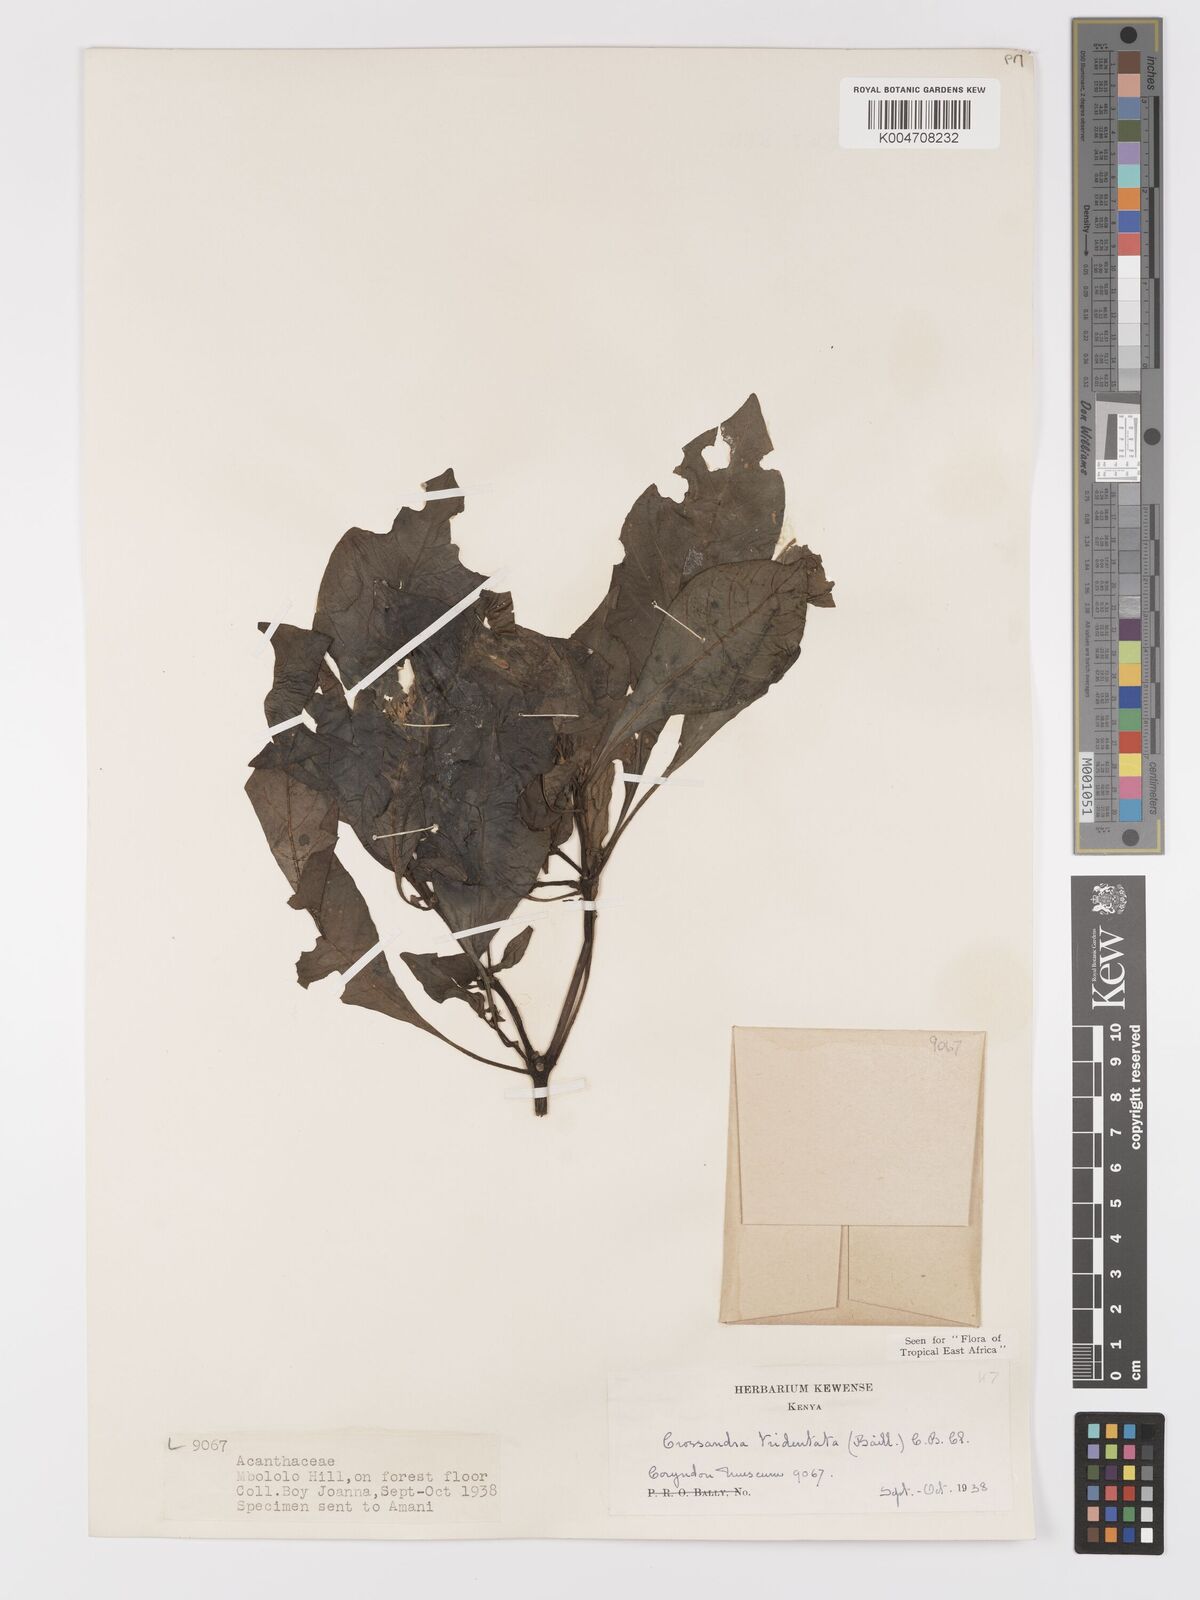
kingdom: Plantae
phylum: Tracheophyta
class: Magnoliopsida
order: Lamiales
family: Acanthaceae
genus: Crossandra
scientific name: Crossandra tridentata
